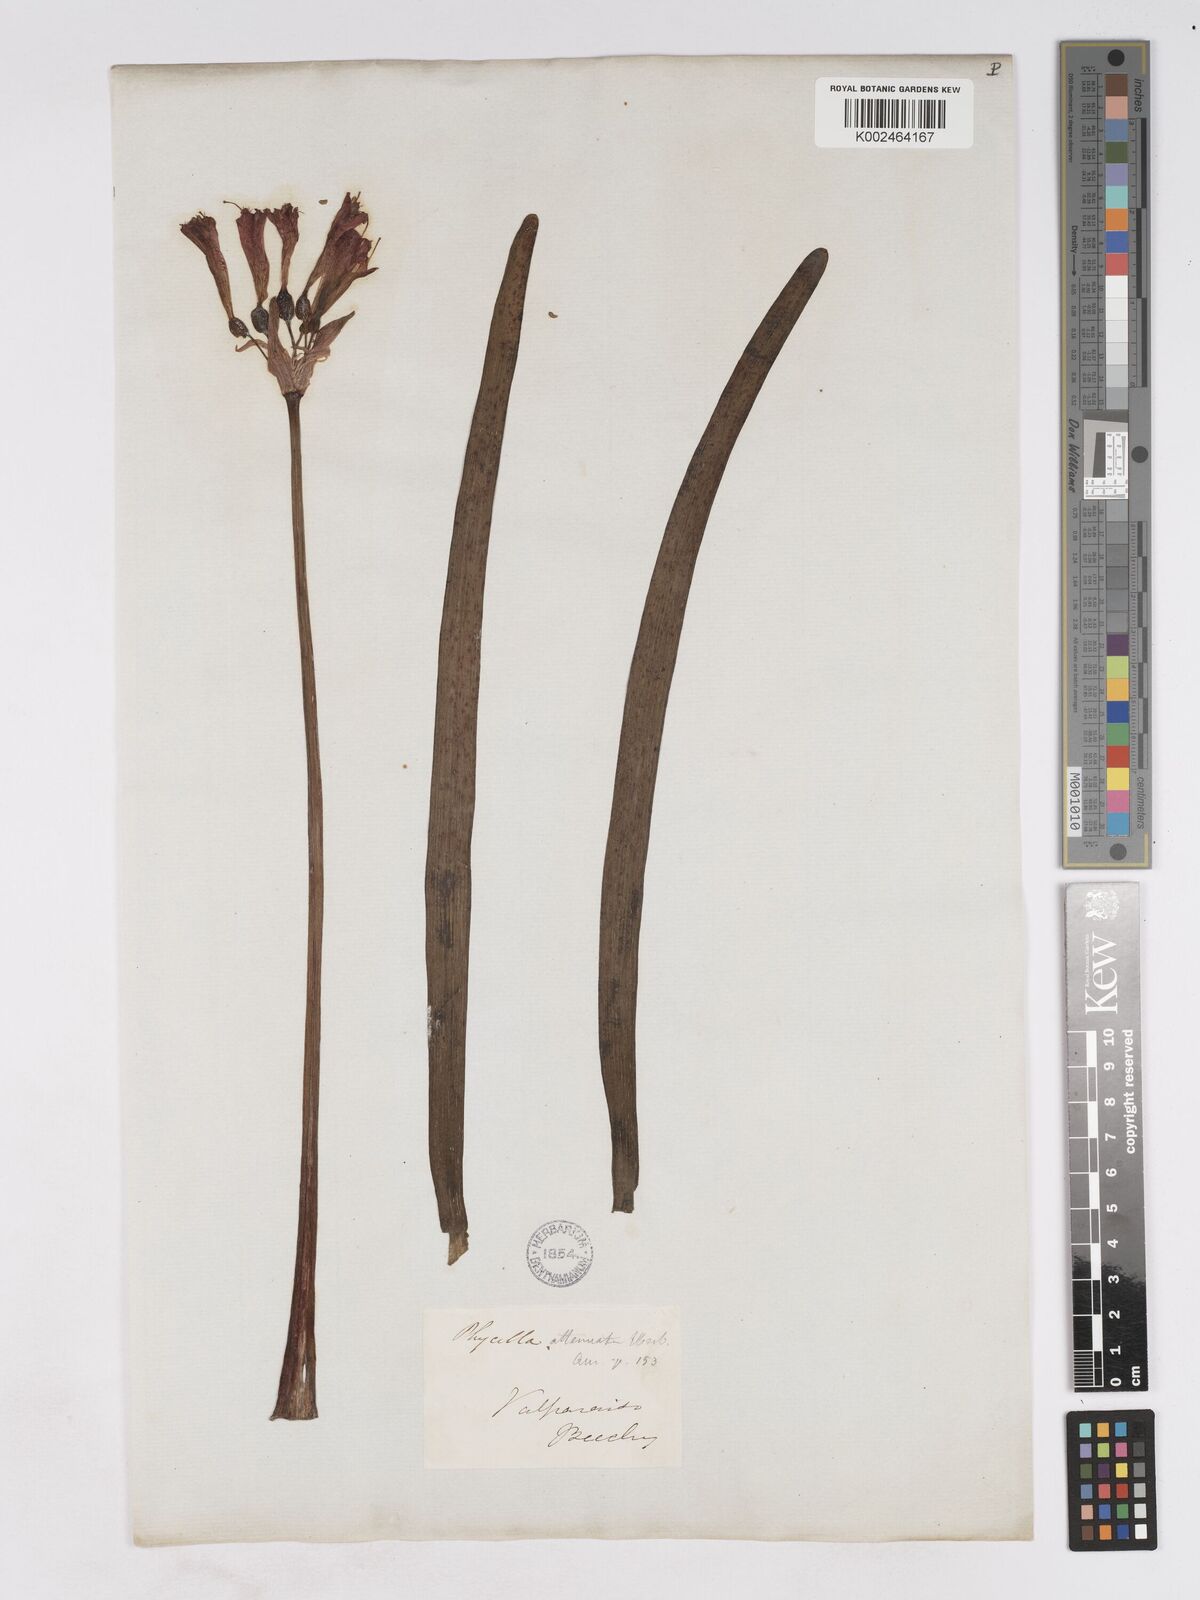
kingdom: Plantae
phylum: Tracheophyta
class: Liliopsida
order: Asparagales
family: Amaryllidaceae
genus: Phycella
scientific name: Phycella cyrtanthoides
